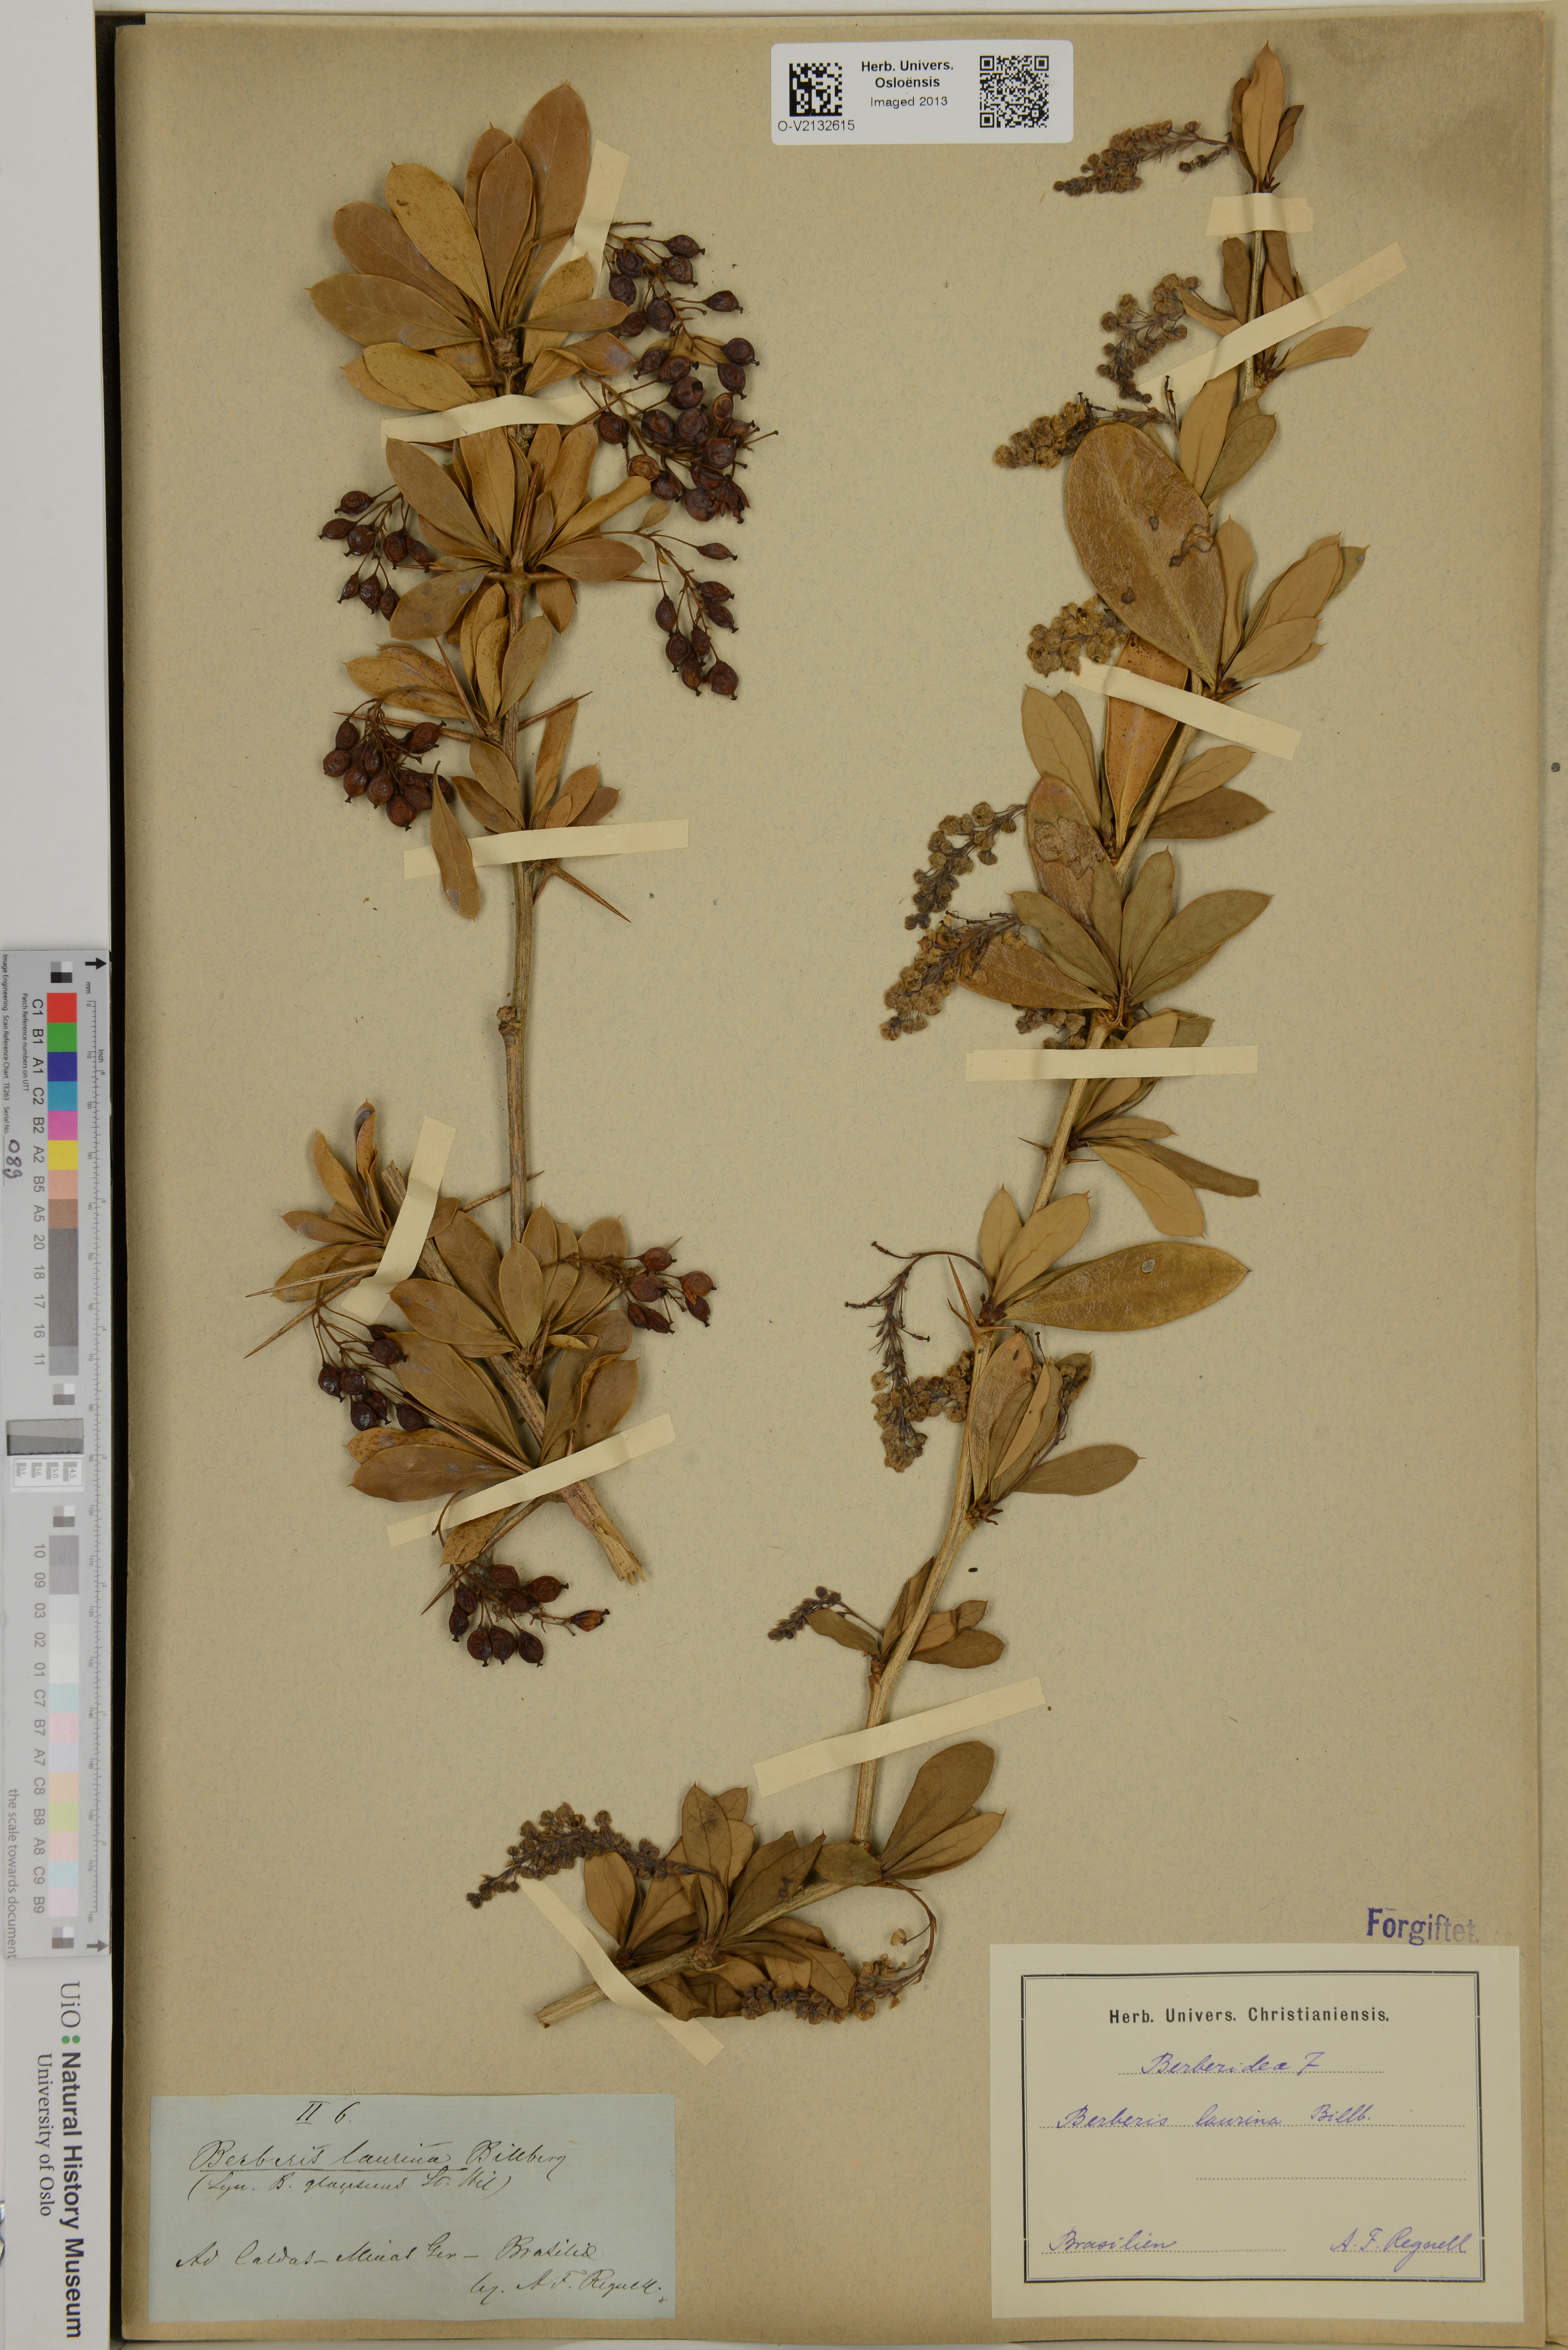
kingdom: Plantae
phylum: Tracheophyta
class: Magnoliopsida
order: Ranunculales
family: Berberidaceae
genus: Berberis
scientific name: Berberis laurina
